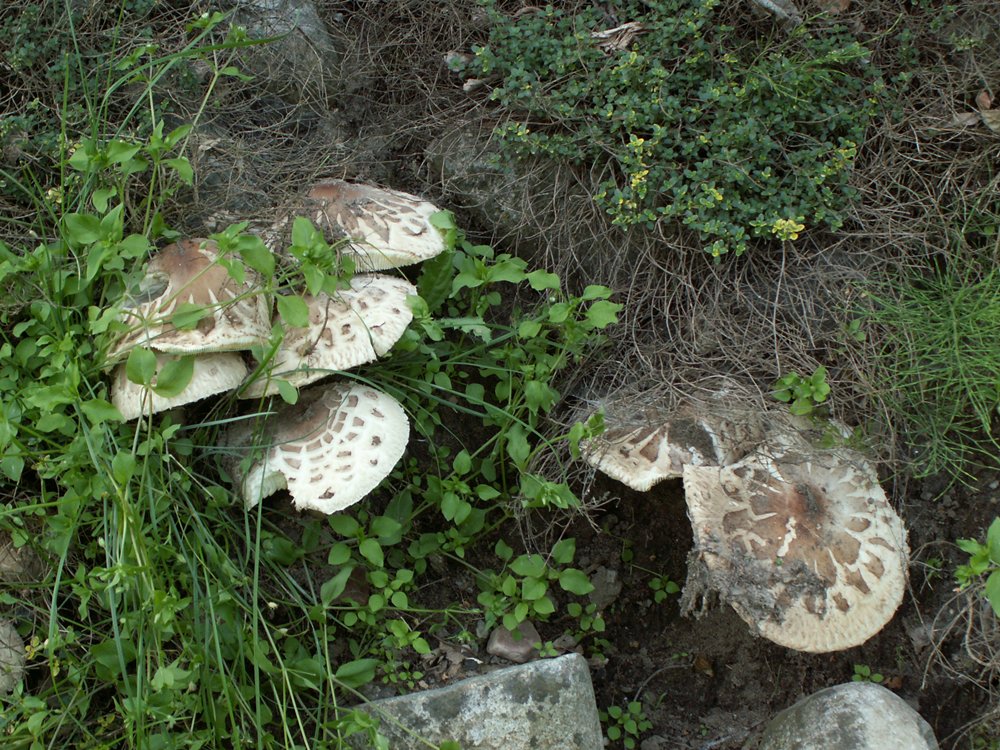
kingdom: Fungi
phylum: Basidiomycota
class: Agaricomycetes
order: Agaricales
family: Agaricaceae
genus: Chlorophyllum
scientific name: Chlorophyllum brunneum
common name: giftig rabarberhat
